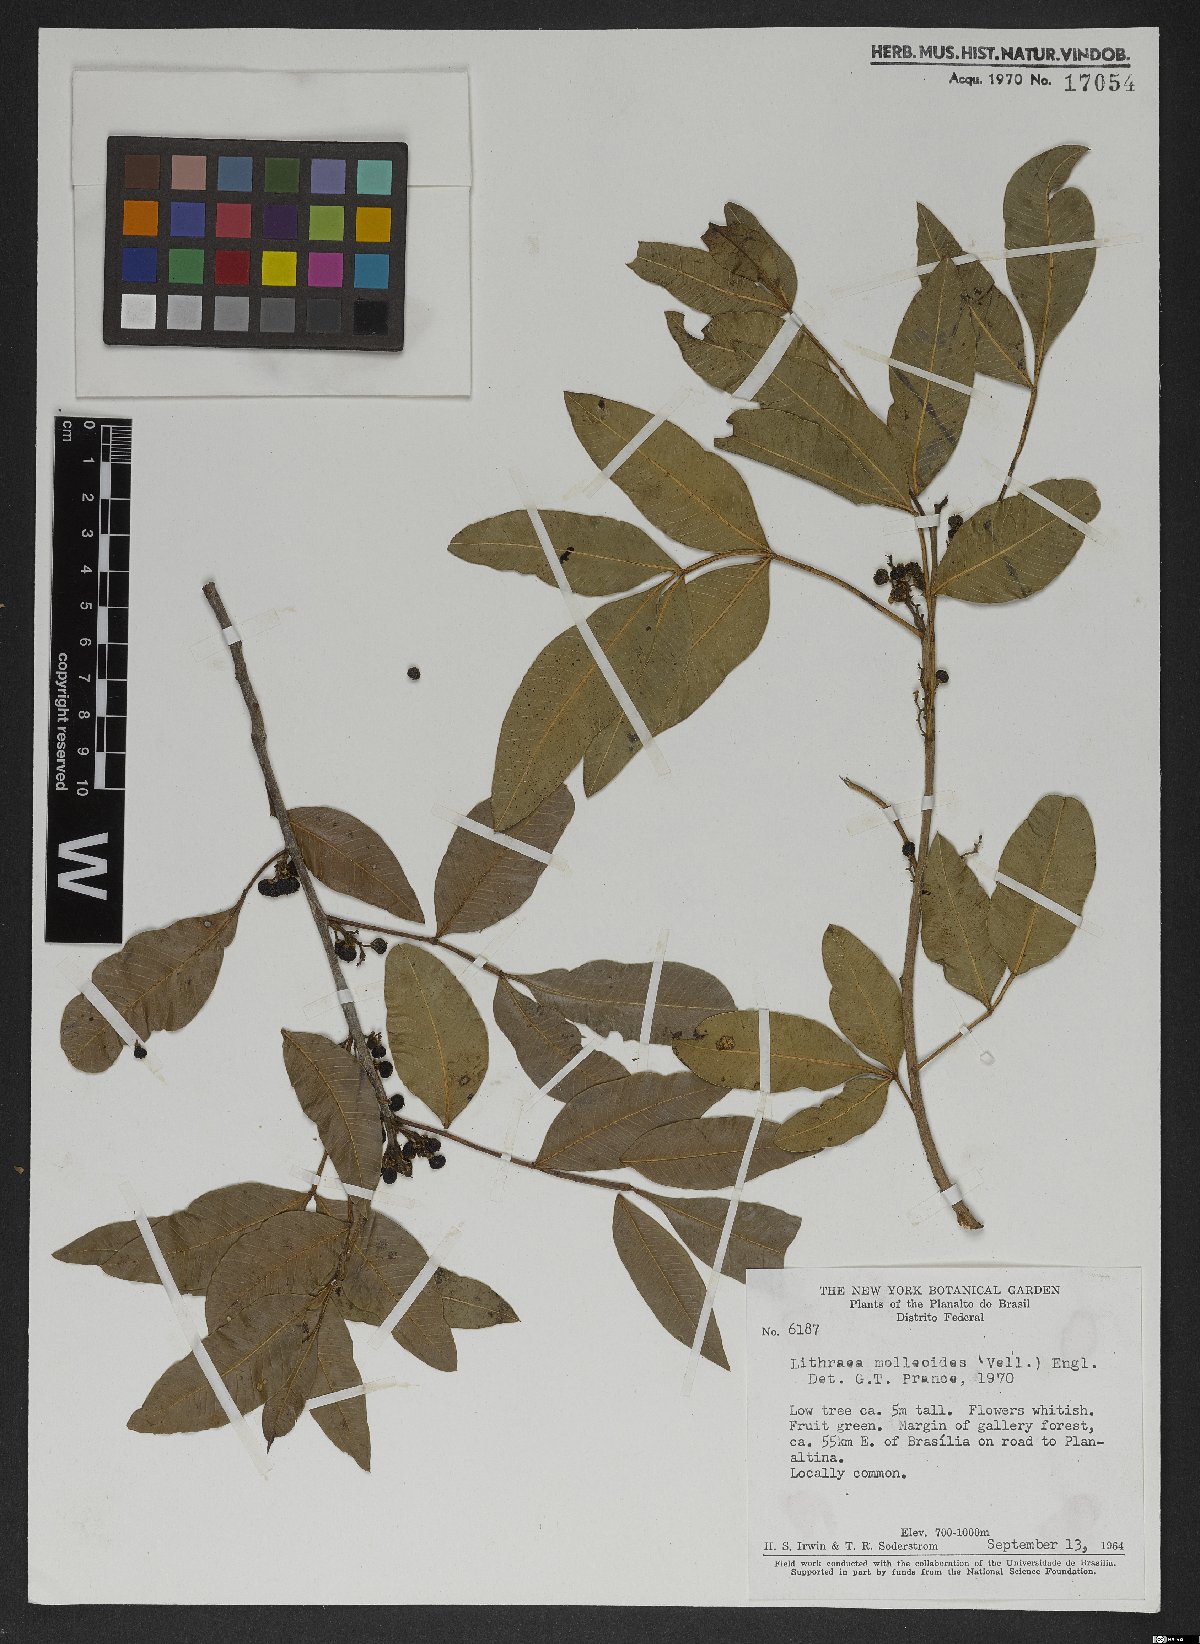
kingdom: Plantae
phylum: Tracheophyta
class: Magnoliopsida
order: Sapindales
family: Anacardiaceae
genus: Lithraea
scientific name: Lithraea molleoides
